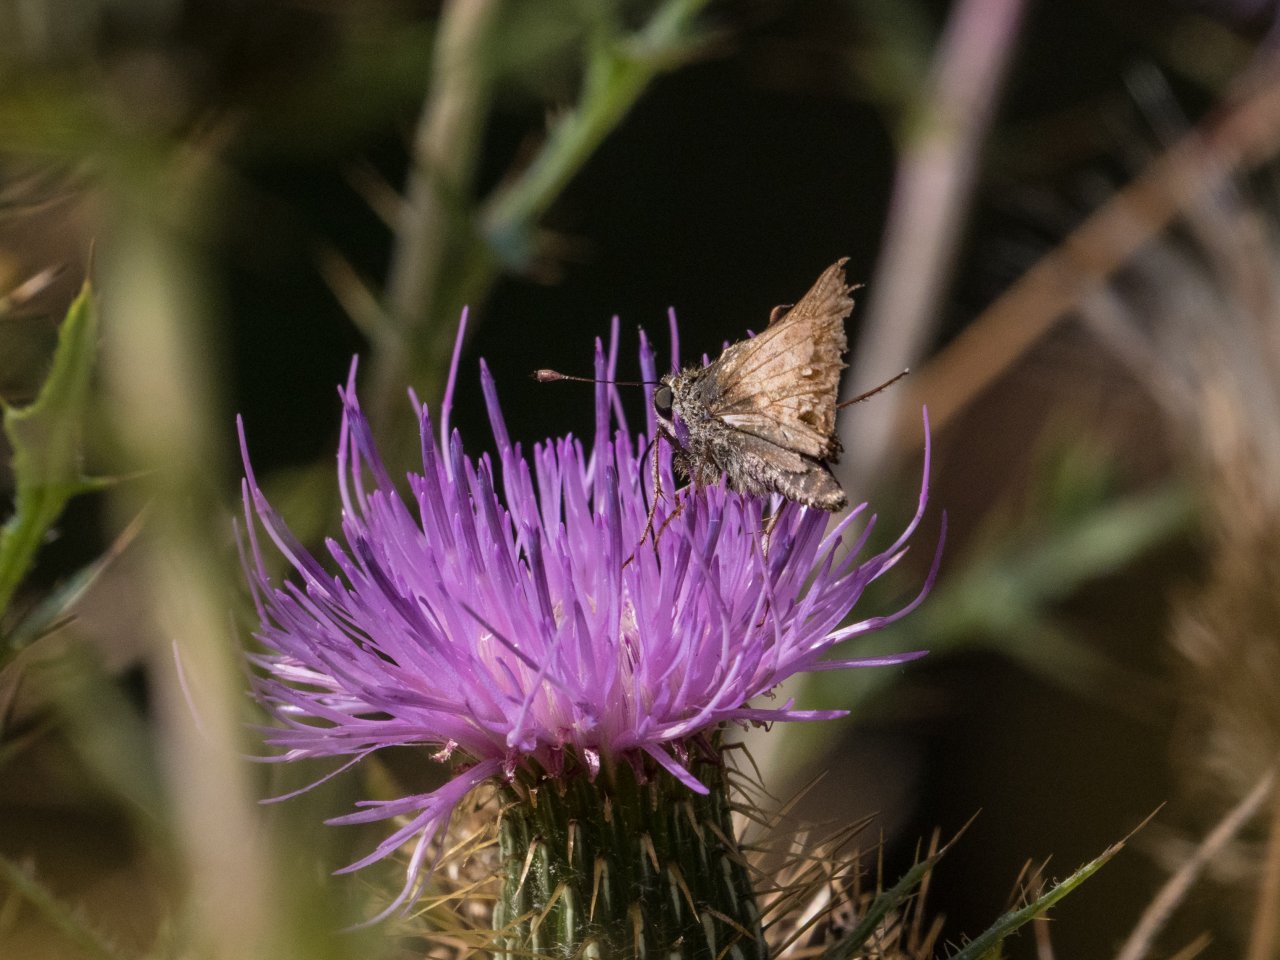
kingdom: Animalia
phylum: Arthropoda
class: Insecta
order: Lepidoptera
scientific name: Lepidoptera
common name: Butterflies
